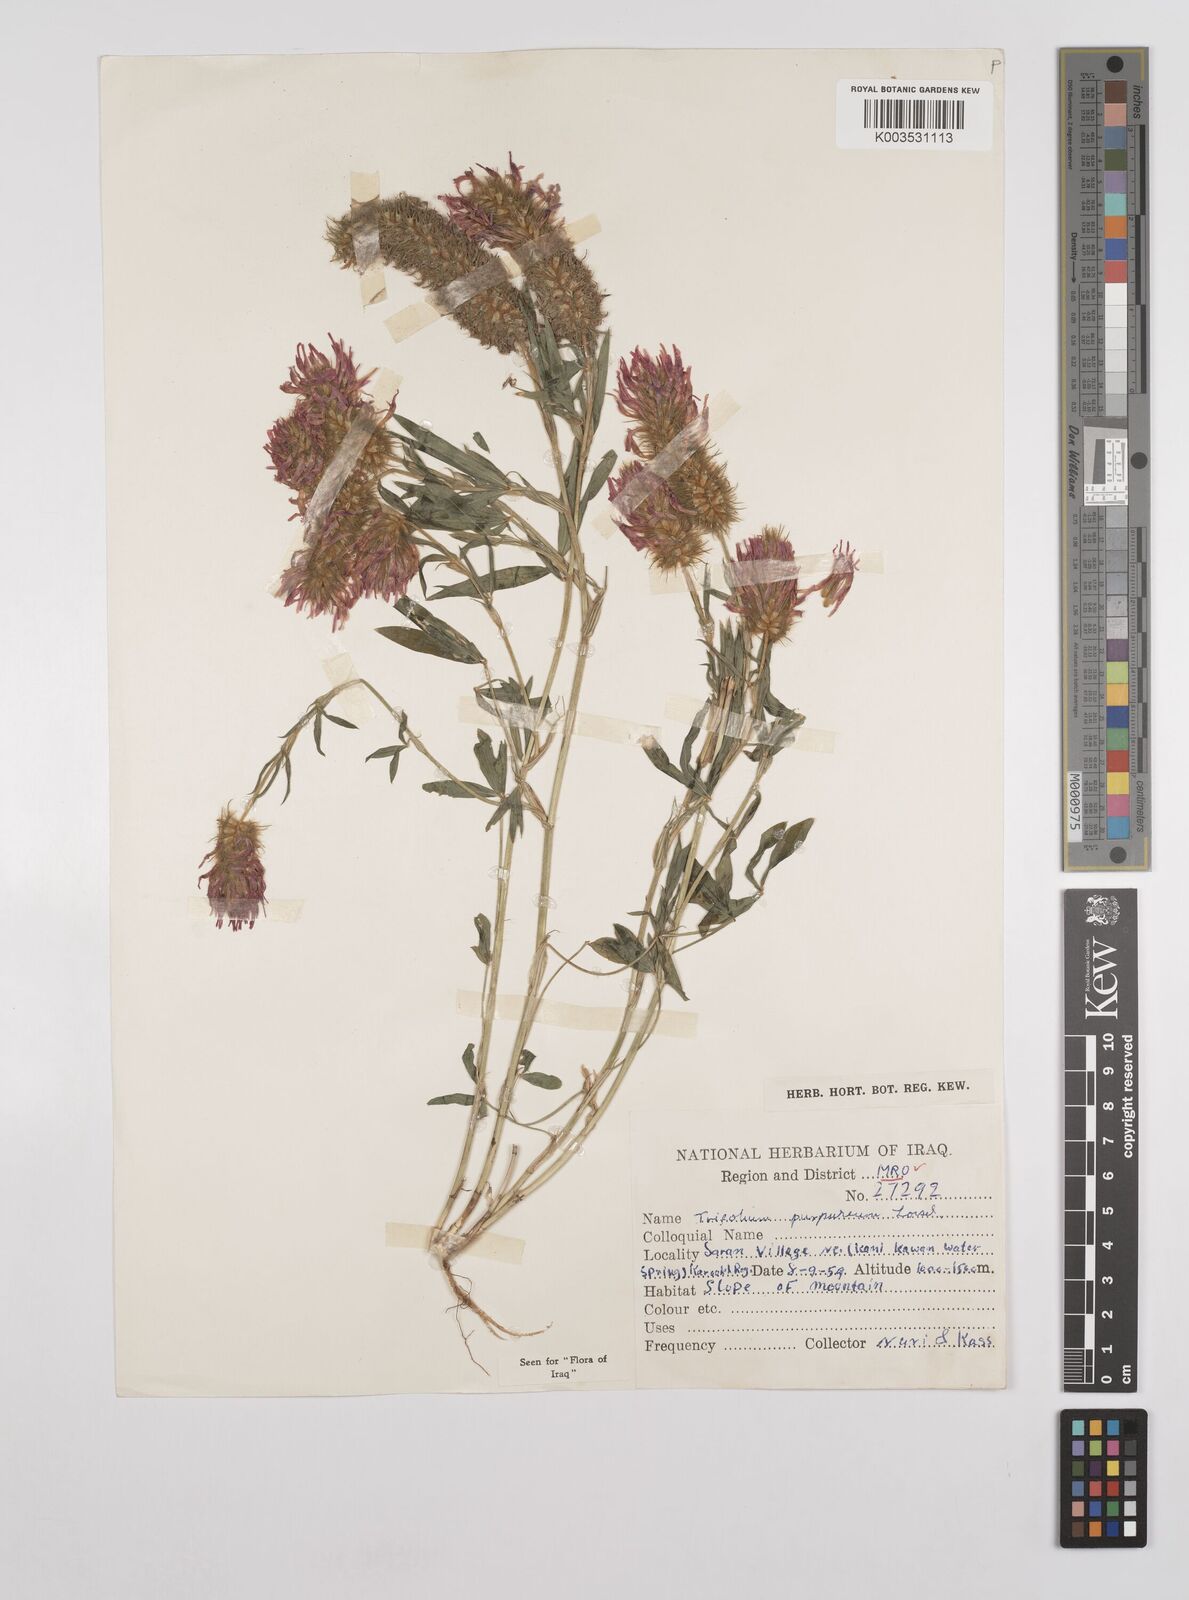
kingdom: Plantae
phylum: Tracheophyta
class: Magnoliopsida
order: Fabales
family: Fabaceae
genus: Trifolium
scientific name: Trifolium purpureum
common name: Purple clover
